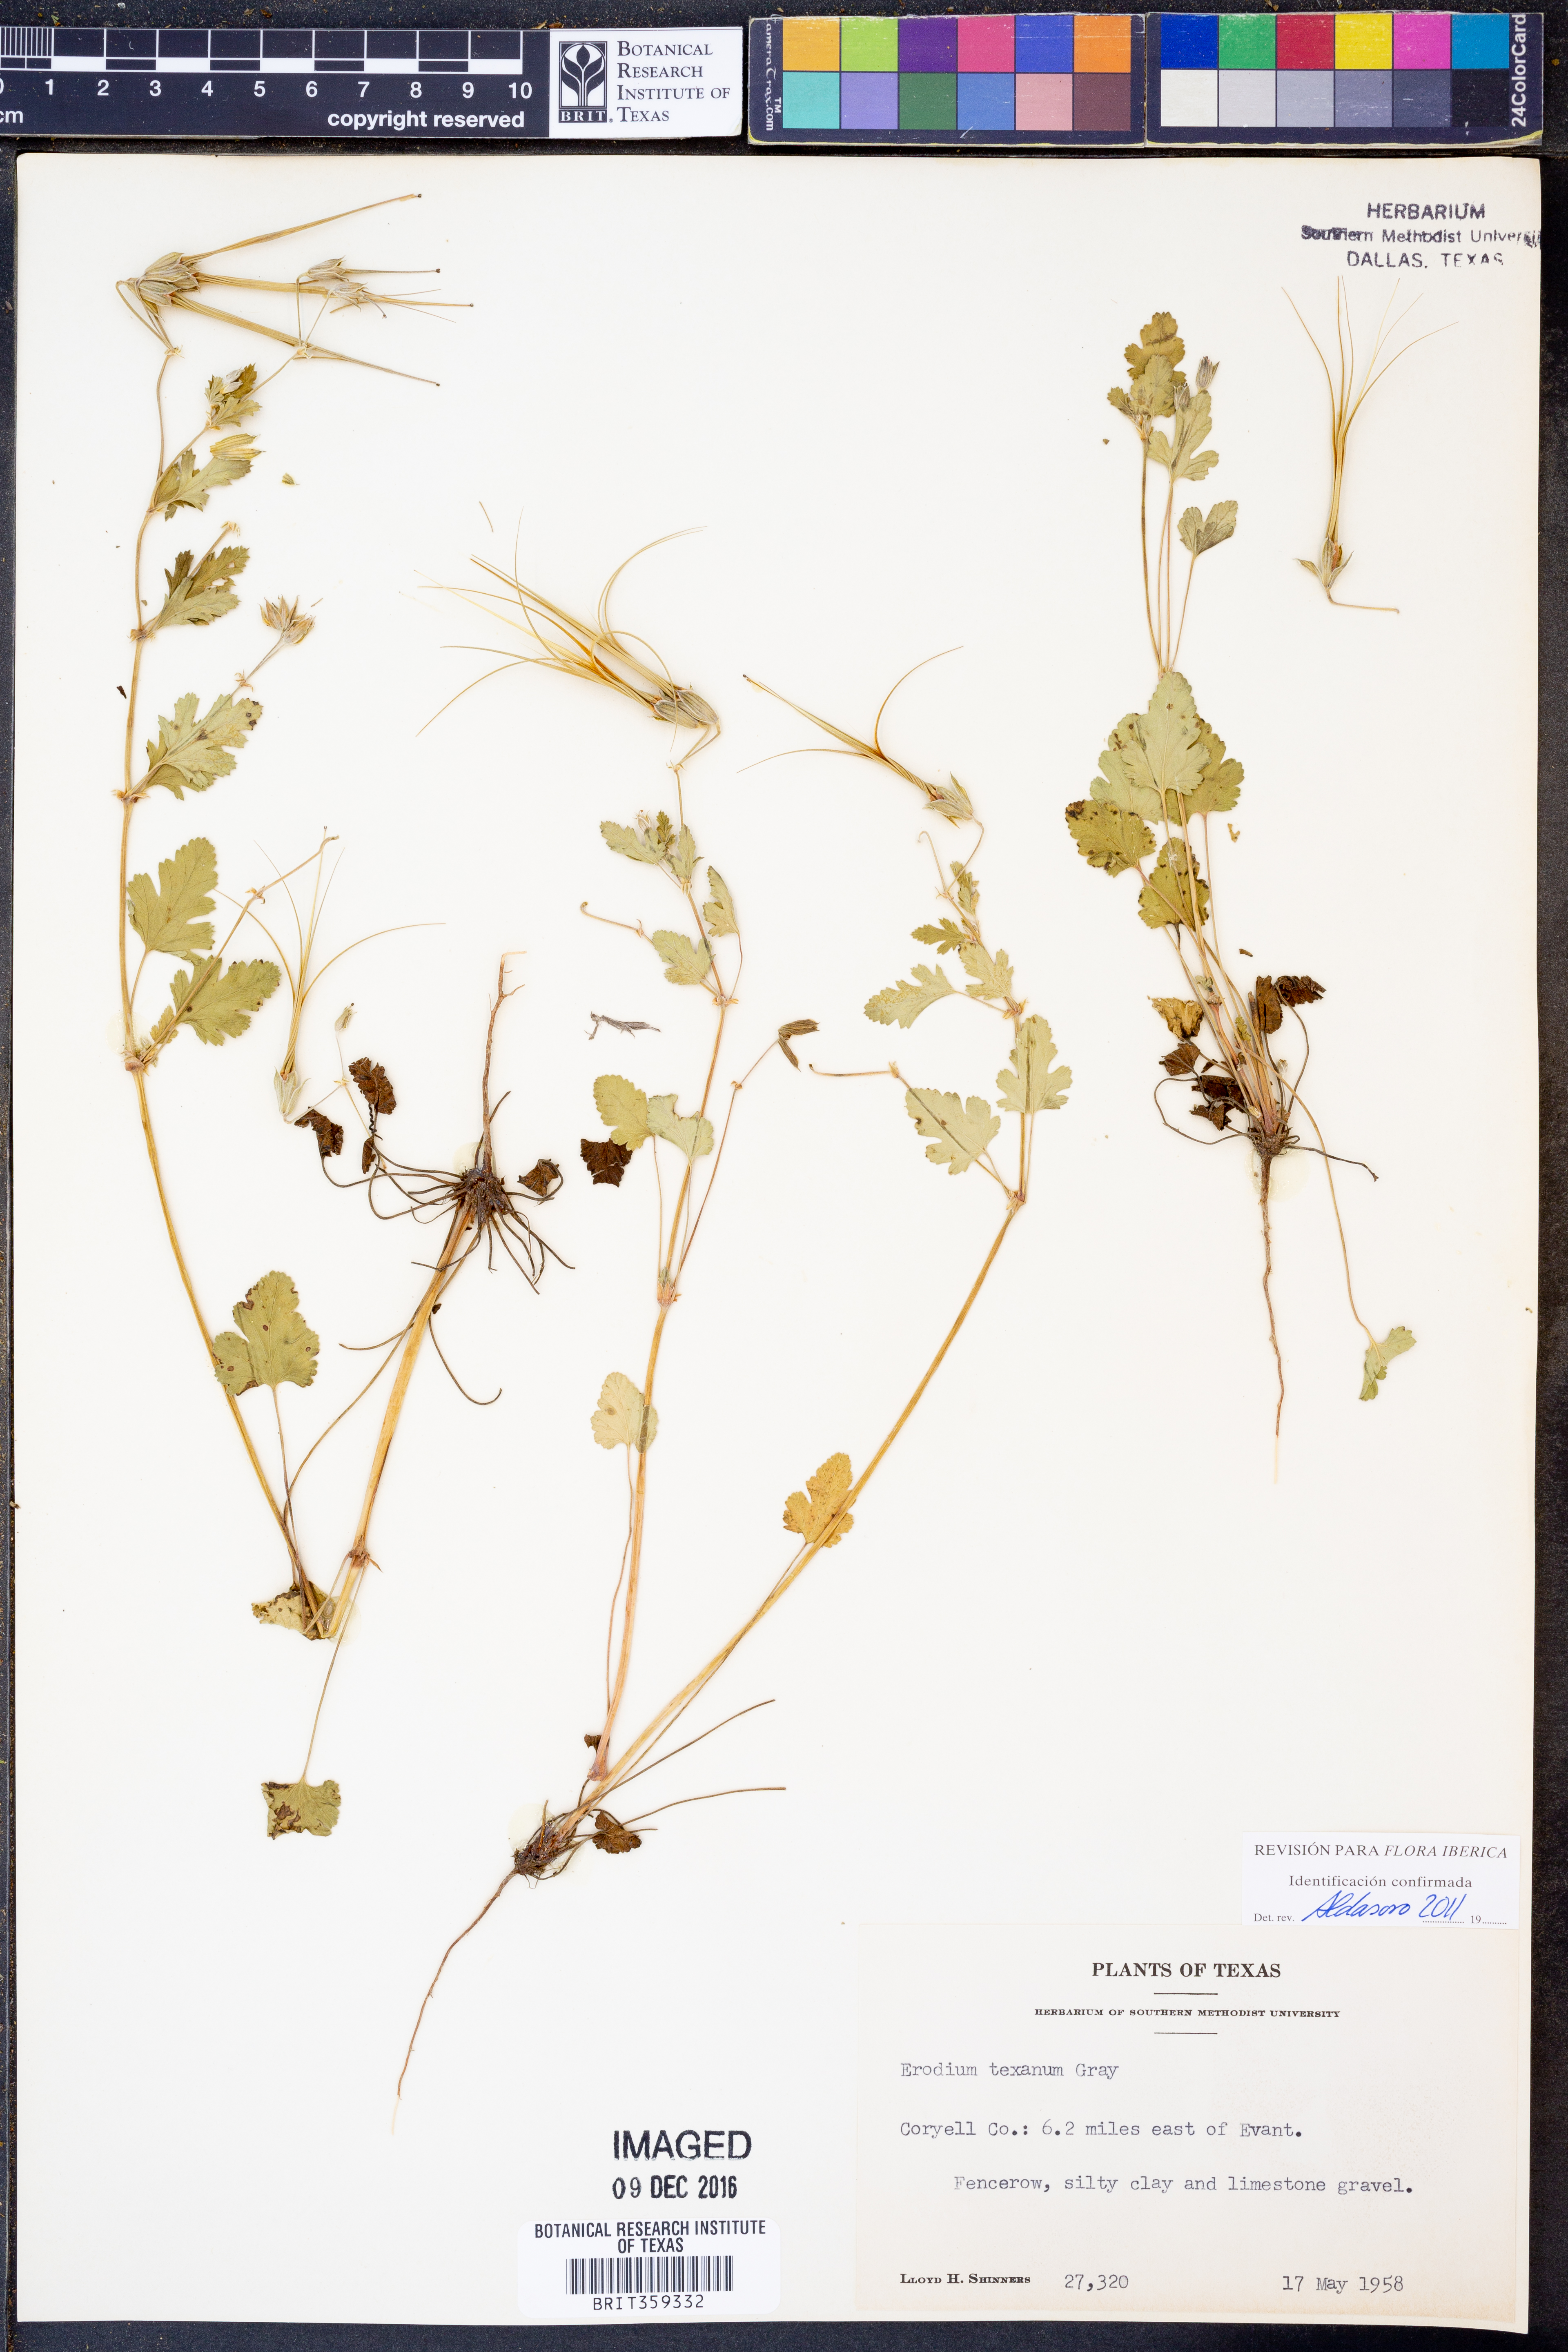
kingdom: Plantae
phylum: Tracheophyta
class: Magnoliopsida
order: Geraniales
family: Geraniaceae
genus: Erodium
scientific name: Erodium texanum
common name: Texas stork's-bill
